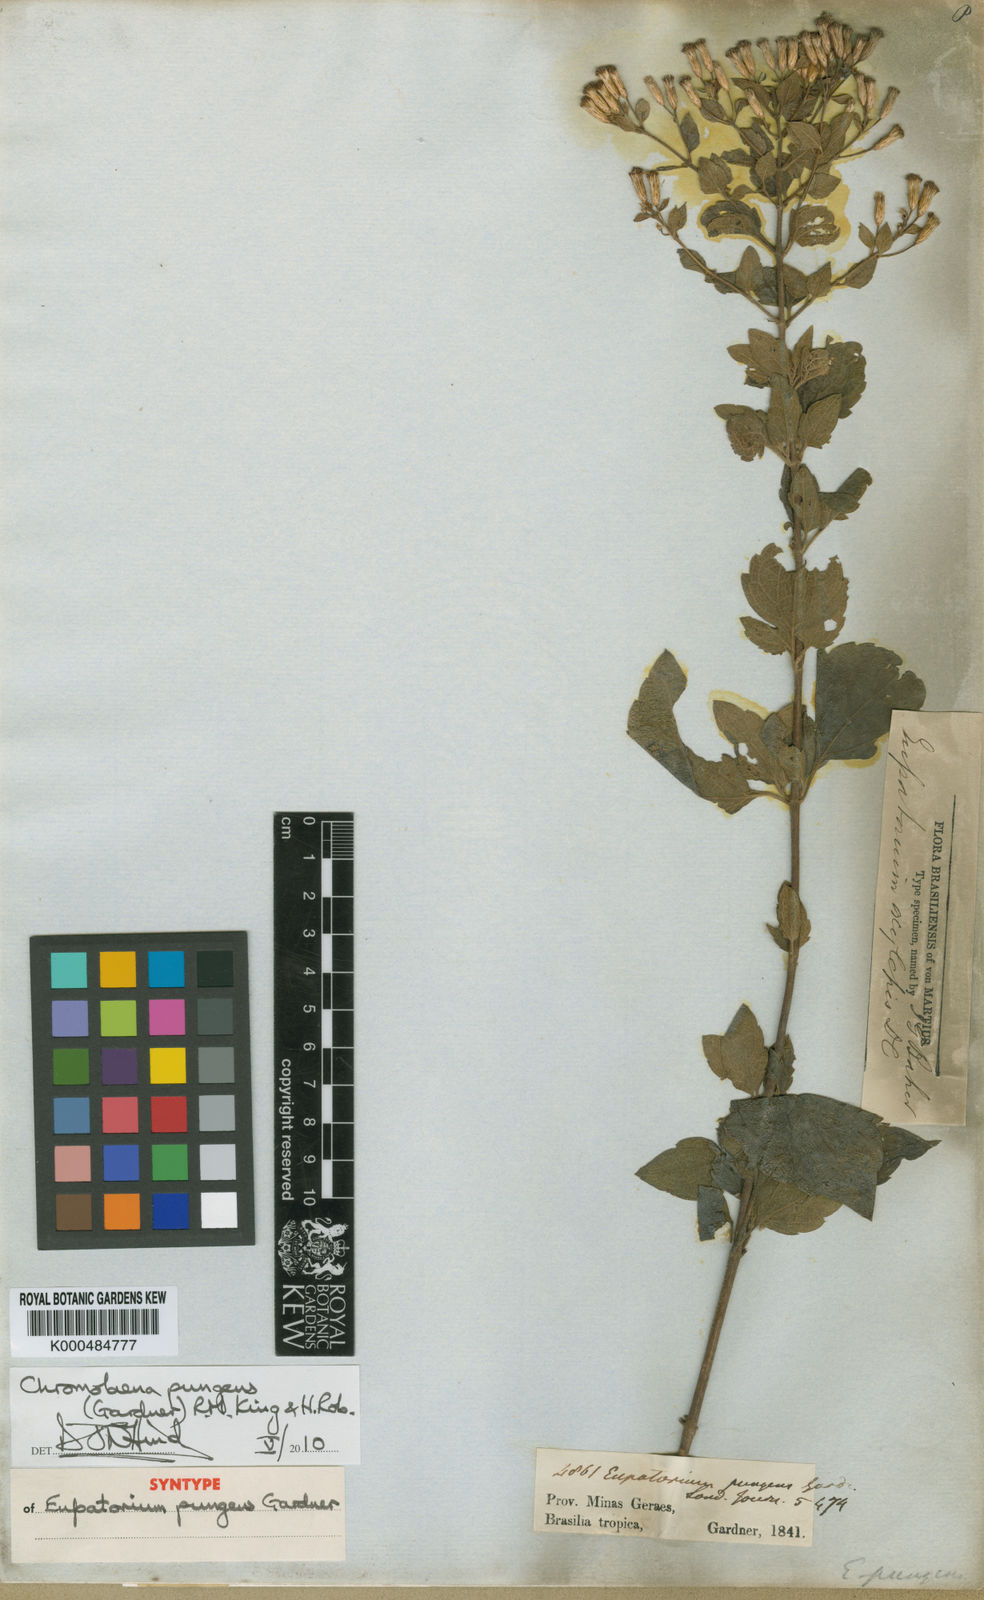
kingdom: Plantae
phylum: Tracheophyta
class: Magnoliopsida
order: Asterales
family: Asteraceae
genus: Chromolaena
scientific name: Chromolaena pungens
